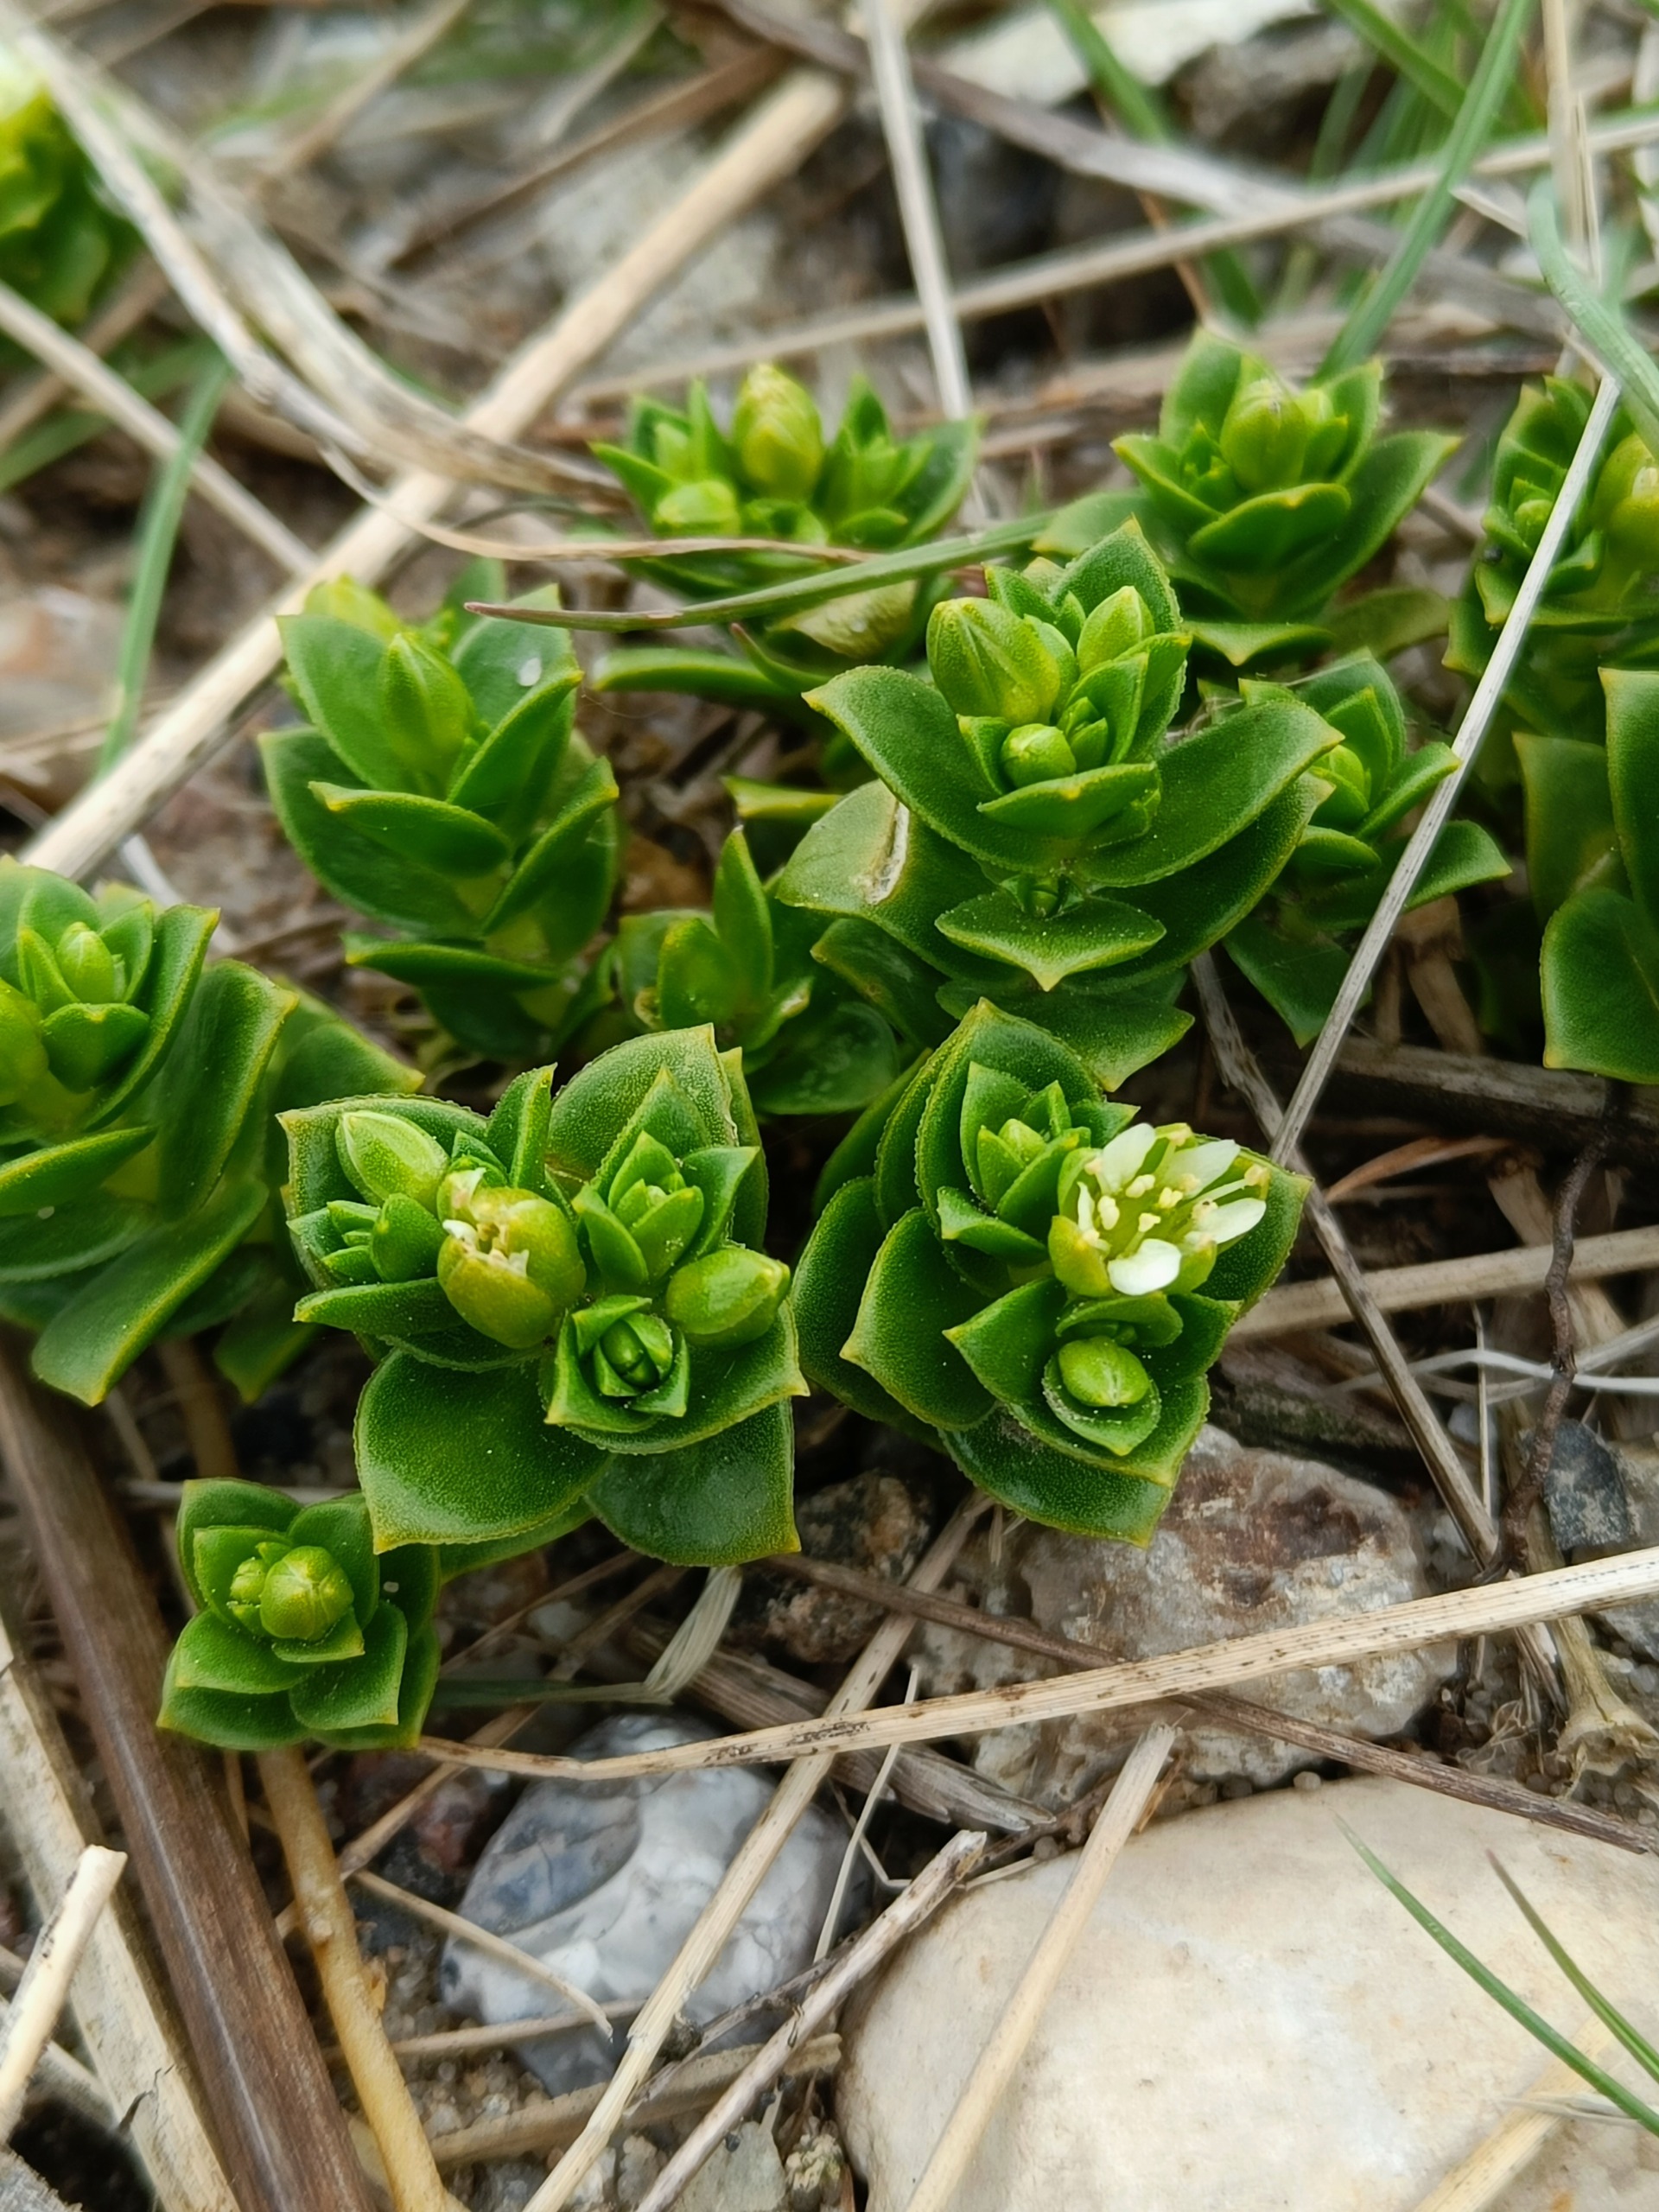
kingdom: Plantae
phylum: Tracheophyta
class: Magnoliopsida
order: Caryophyllales
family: Caryophyllaceae
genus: Honckenya
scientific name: Honckenya peploides
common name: Strandarve
